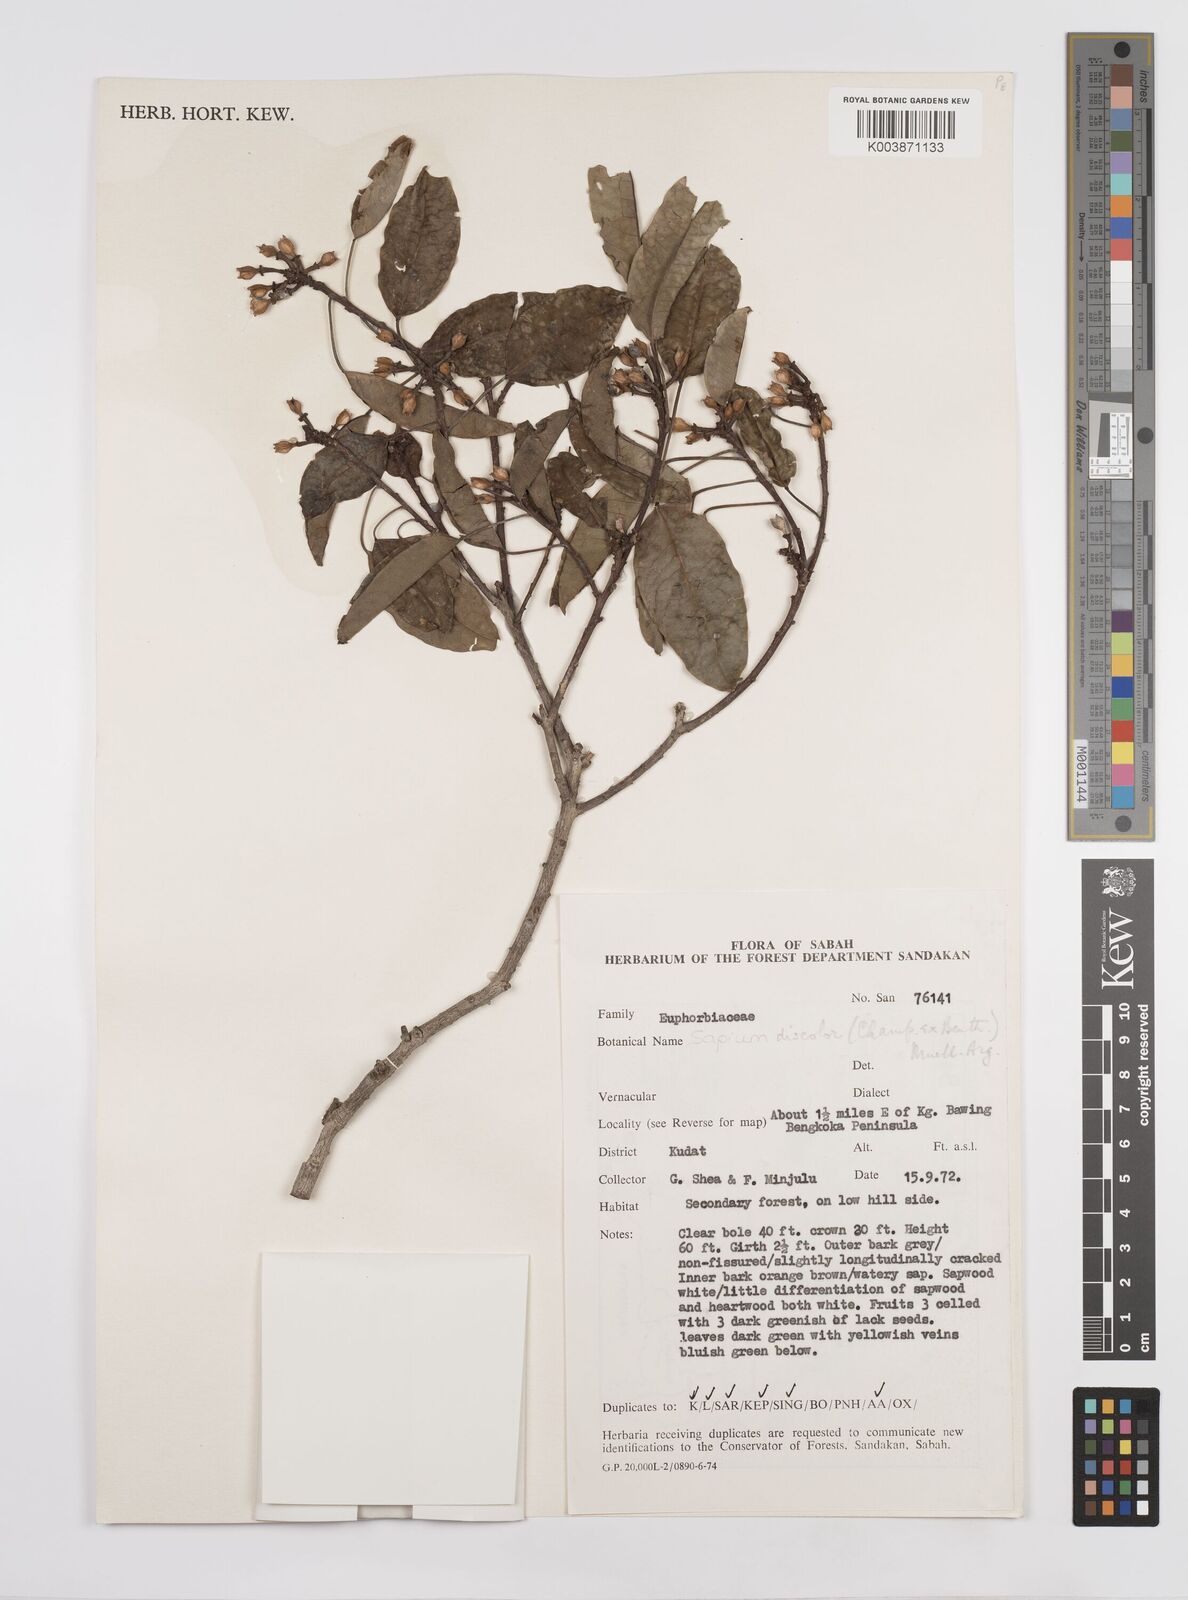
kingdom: Plantae
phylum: Tracheophyta
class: Magnoliopsida
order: Malpighiales
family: Euphorbiaceae
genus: Triadica
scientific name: Triadica cochinchinensis
